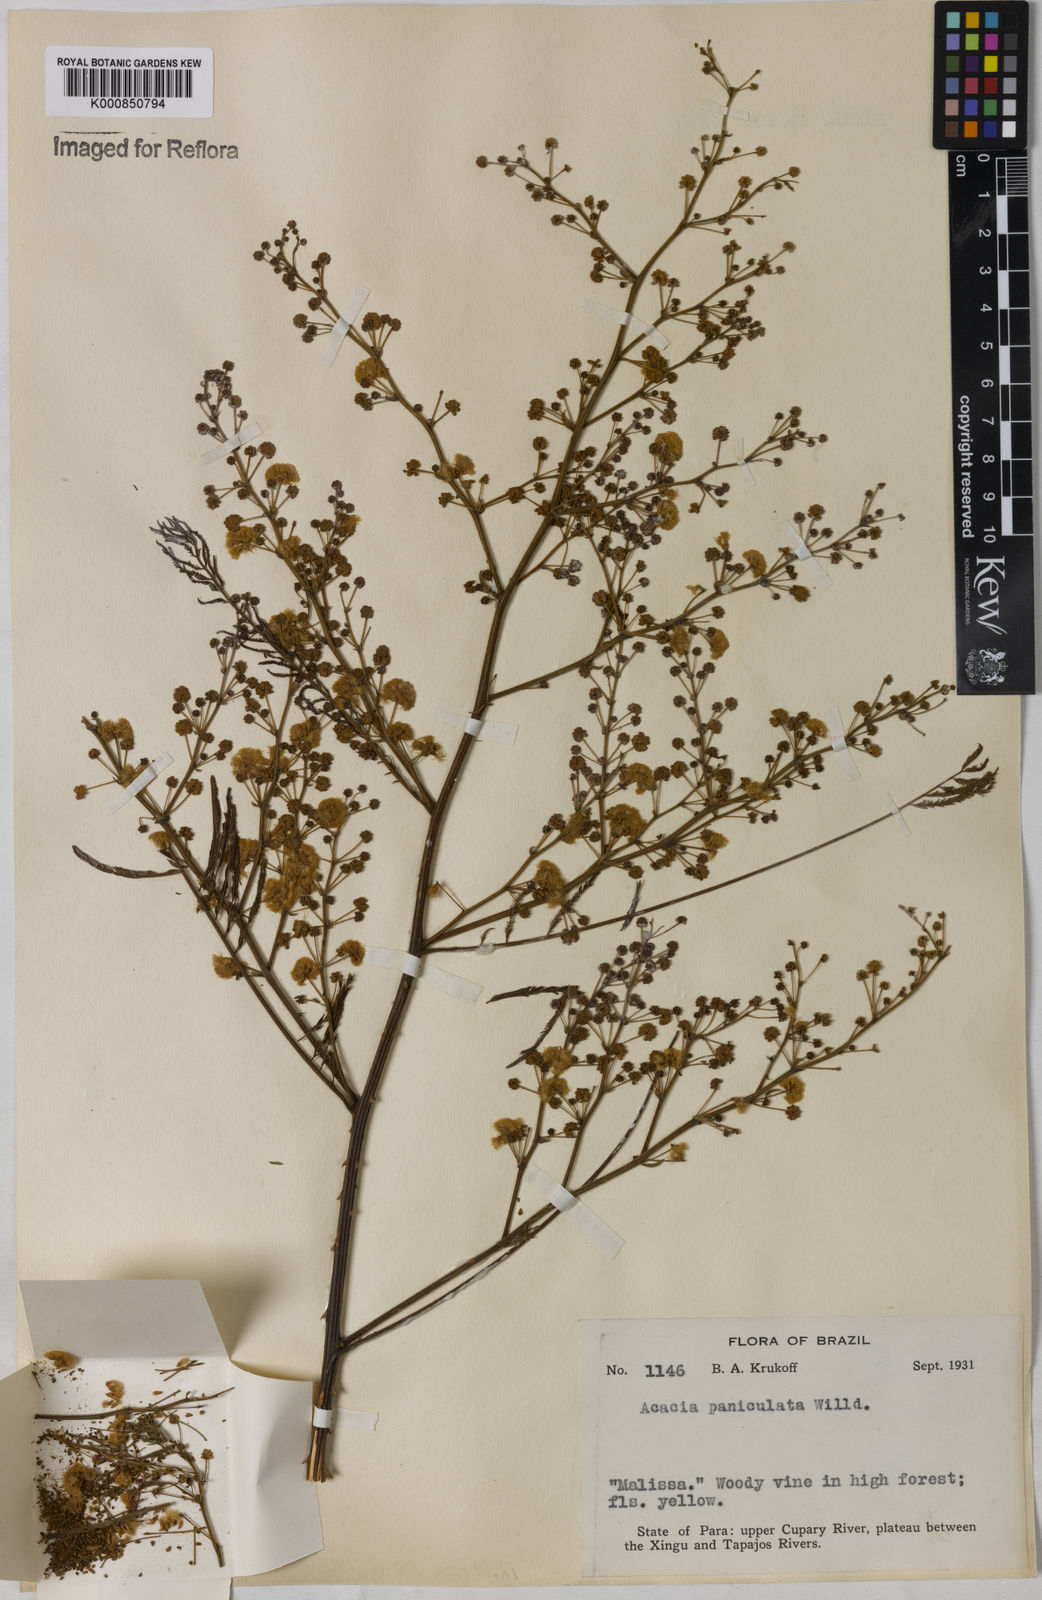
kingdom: Plantae
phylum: Tracheophyta
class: Magnoliopsida
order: Fabales
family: Fabaceae
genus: Senegalia
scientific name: Senegalia tenuifolia
